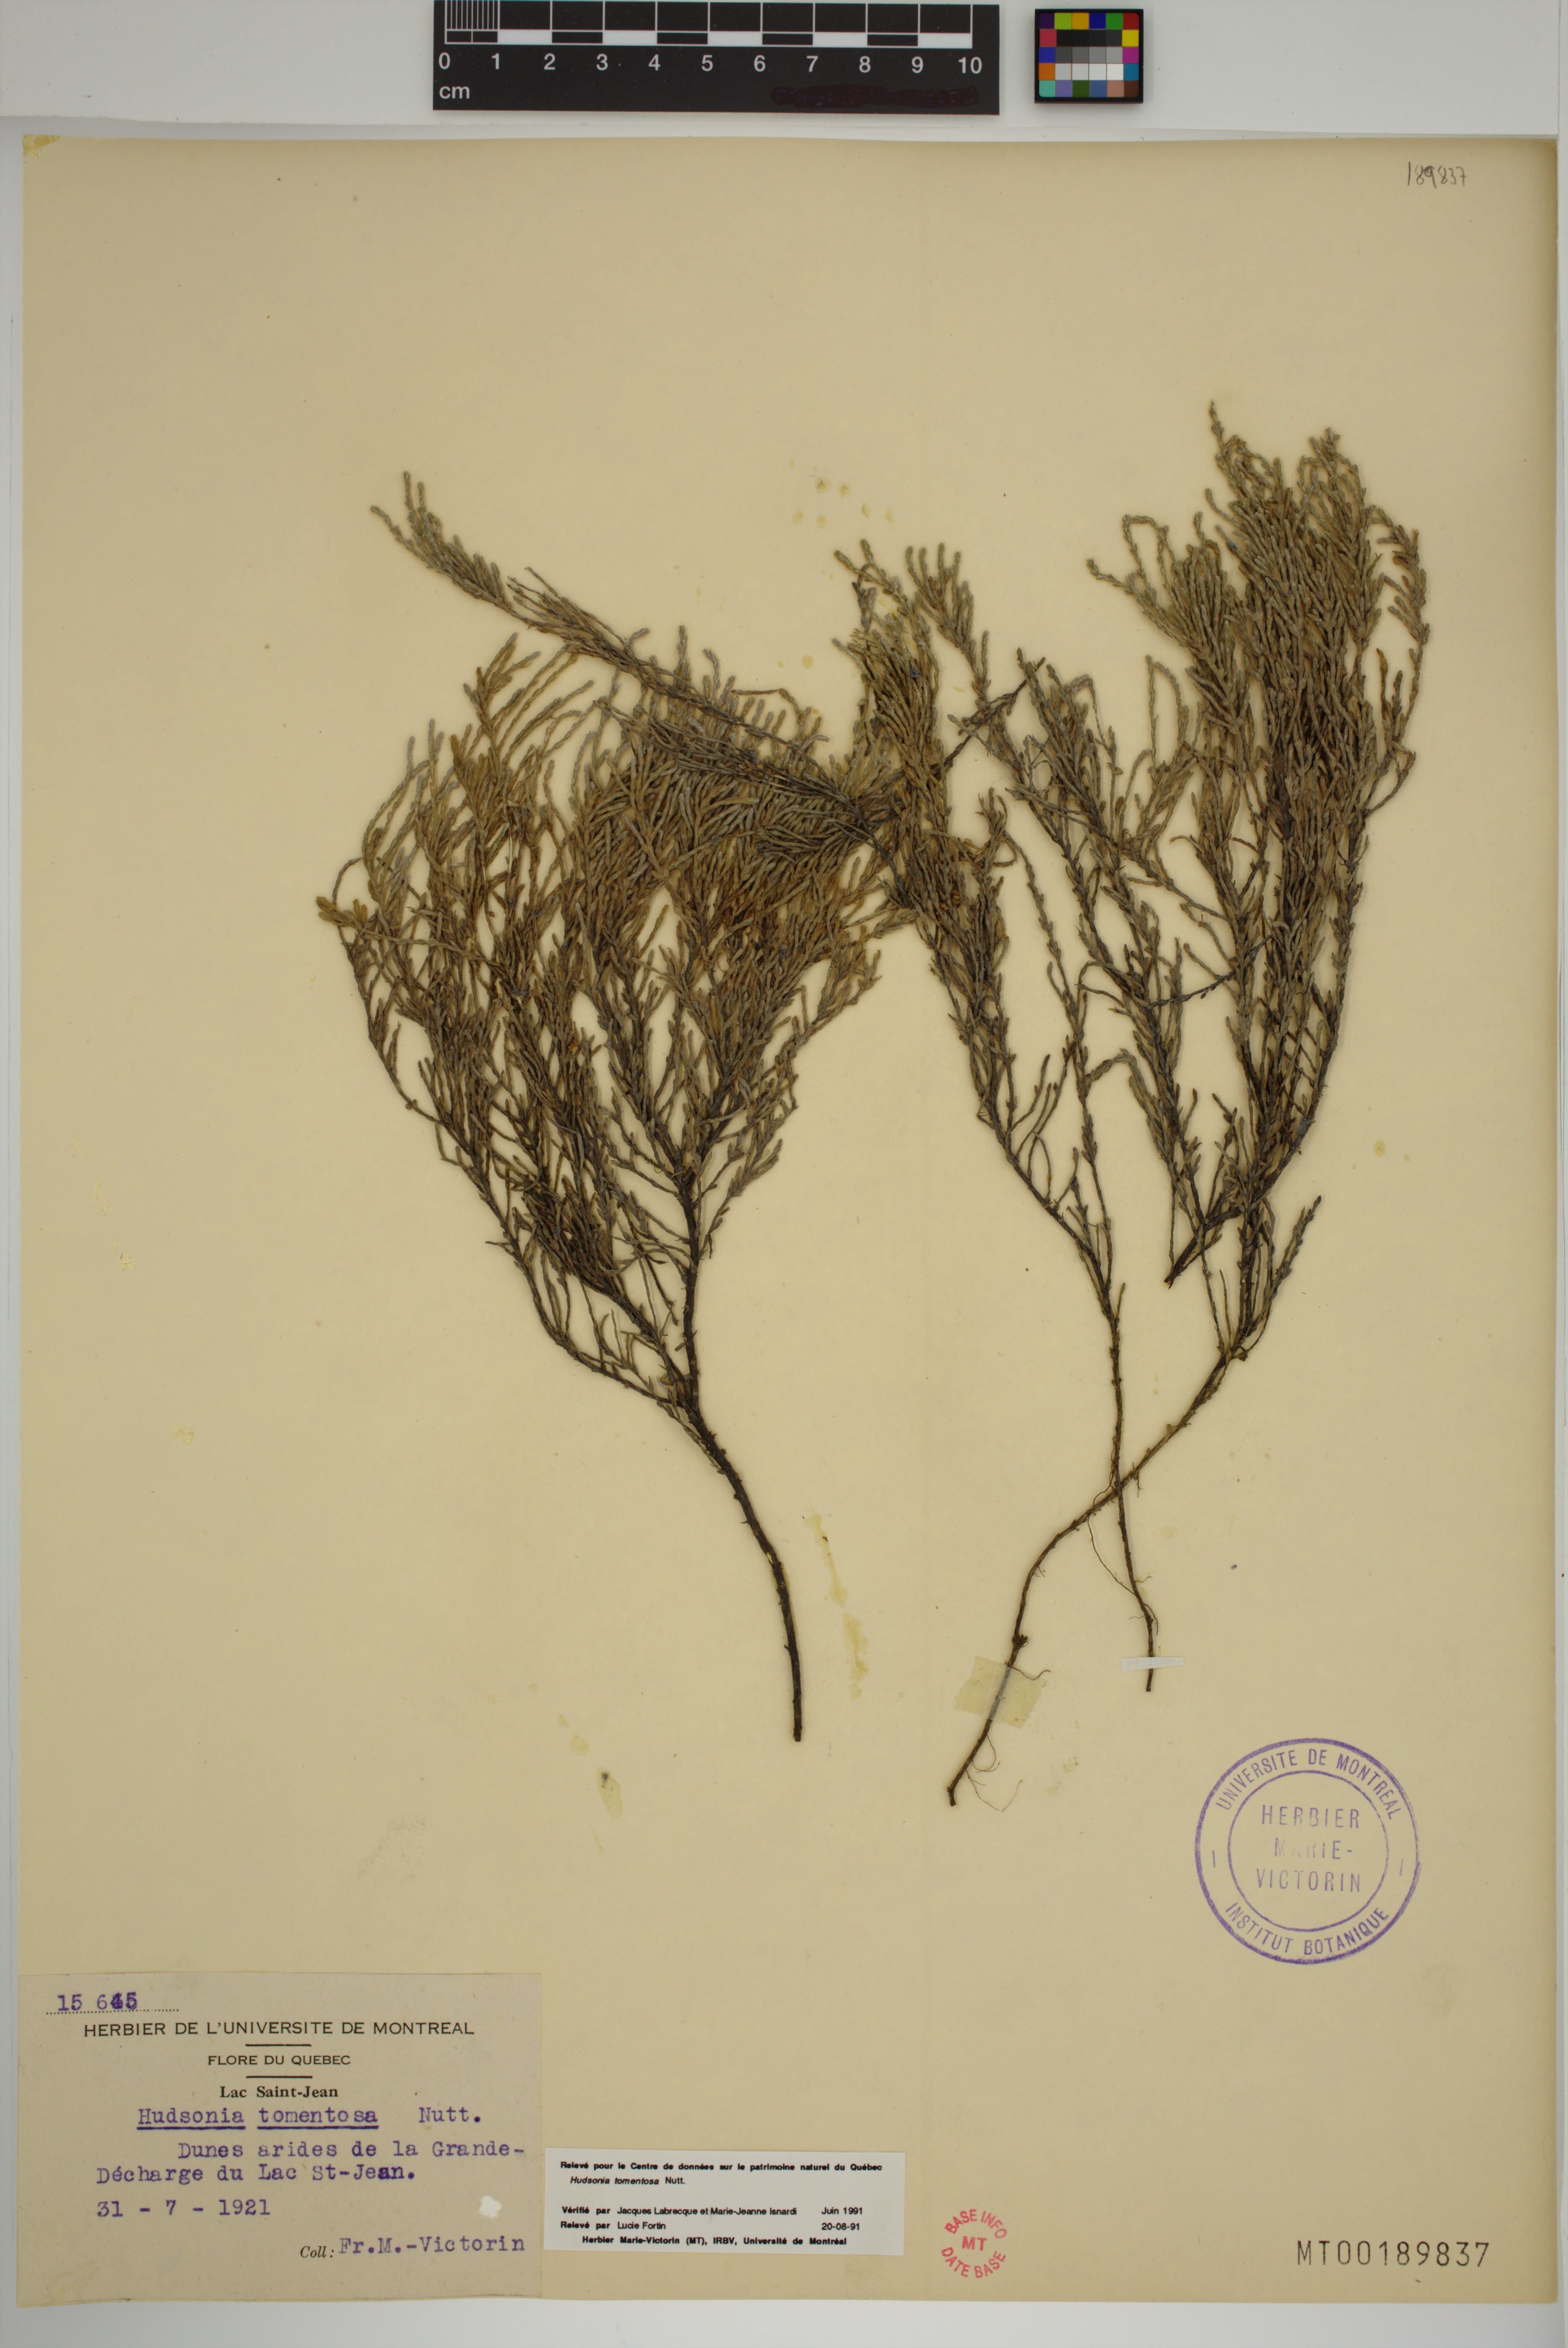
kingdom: Plantae
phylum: Tracheophyta
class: Magnoliopsida
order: Malvales
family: Cistaceae
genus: Hudsonia
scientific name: Hudsonia tomentosa
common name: Beach-heath
